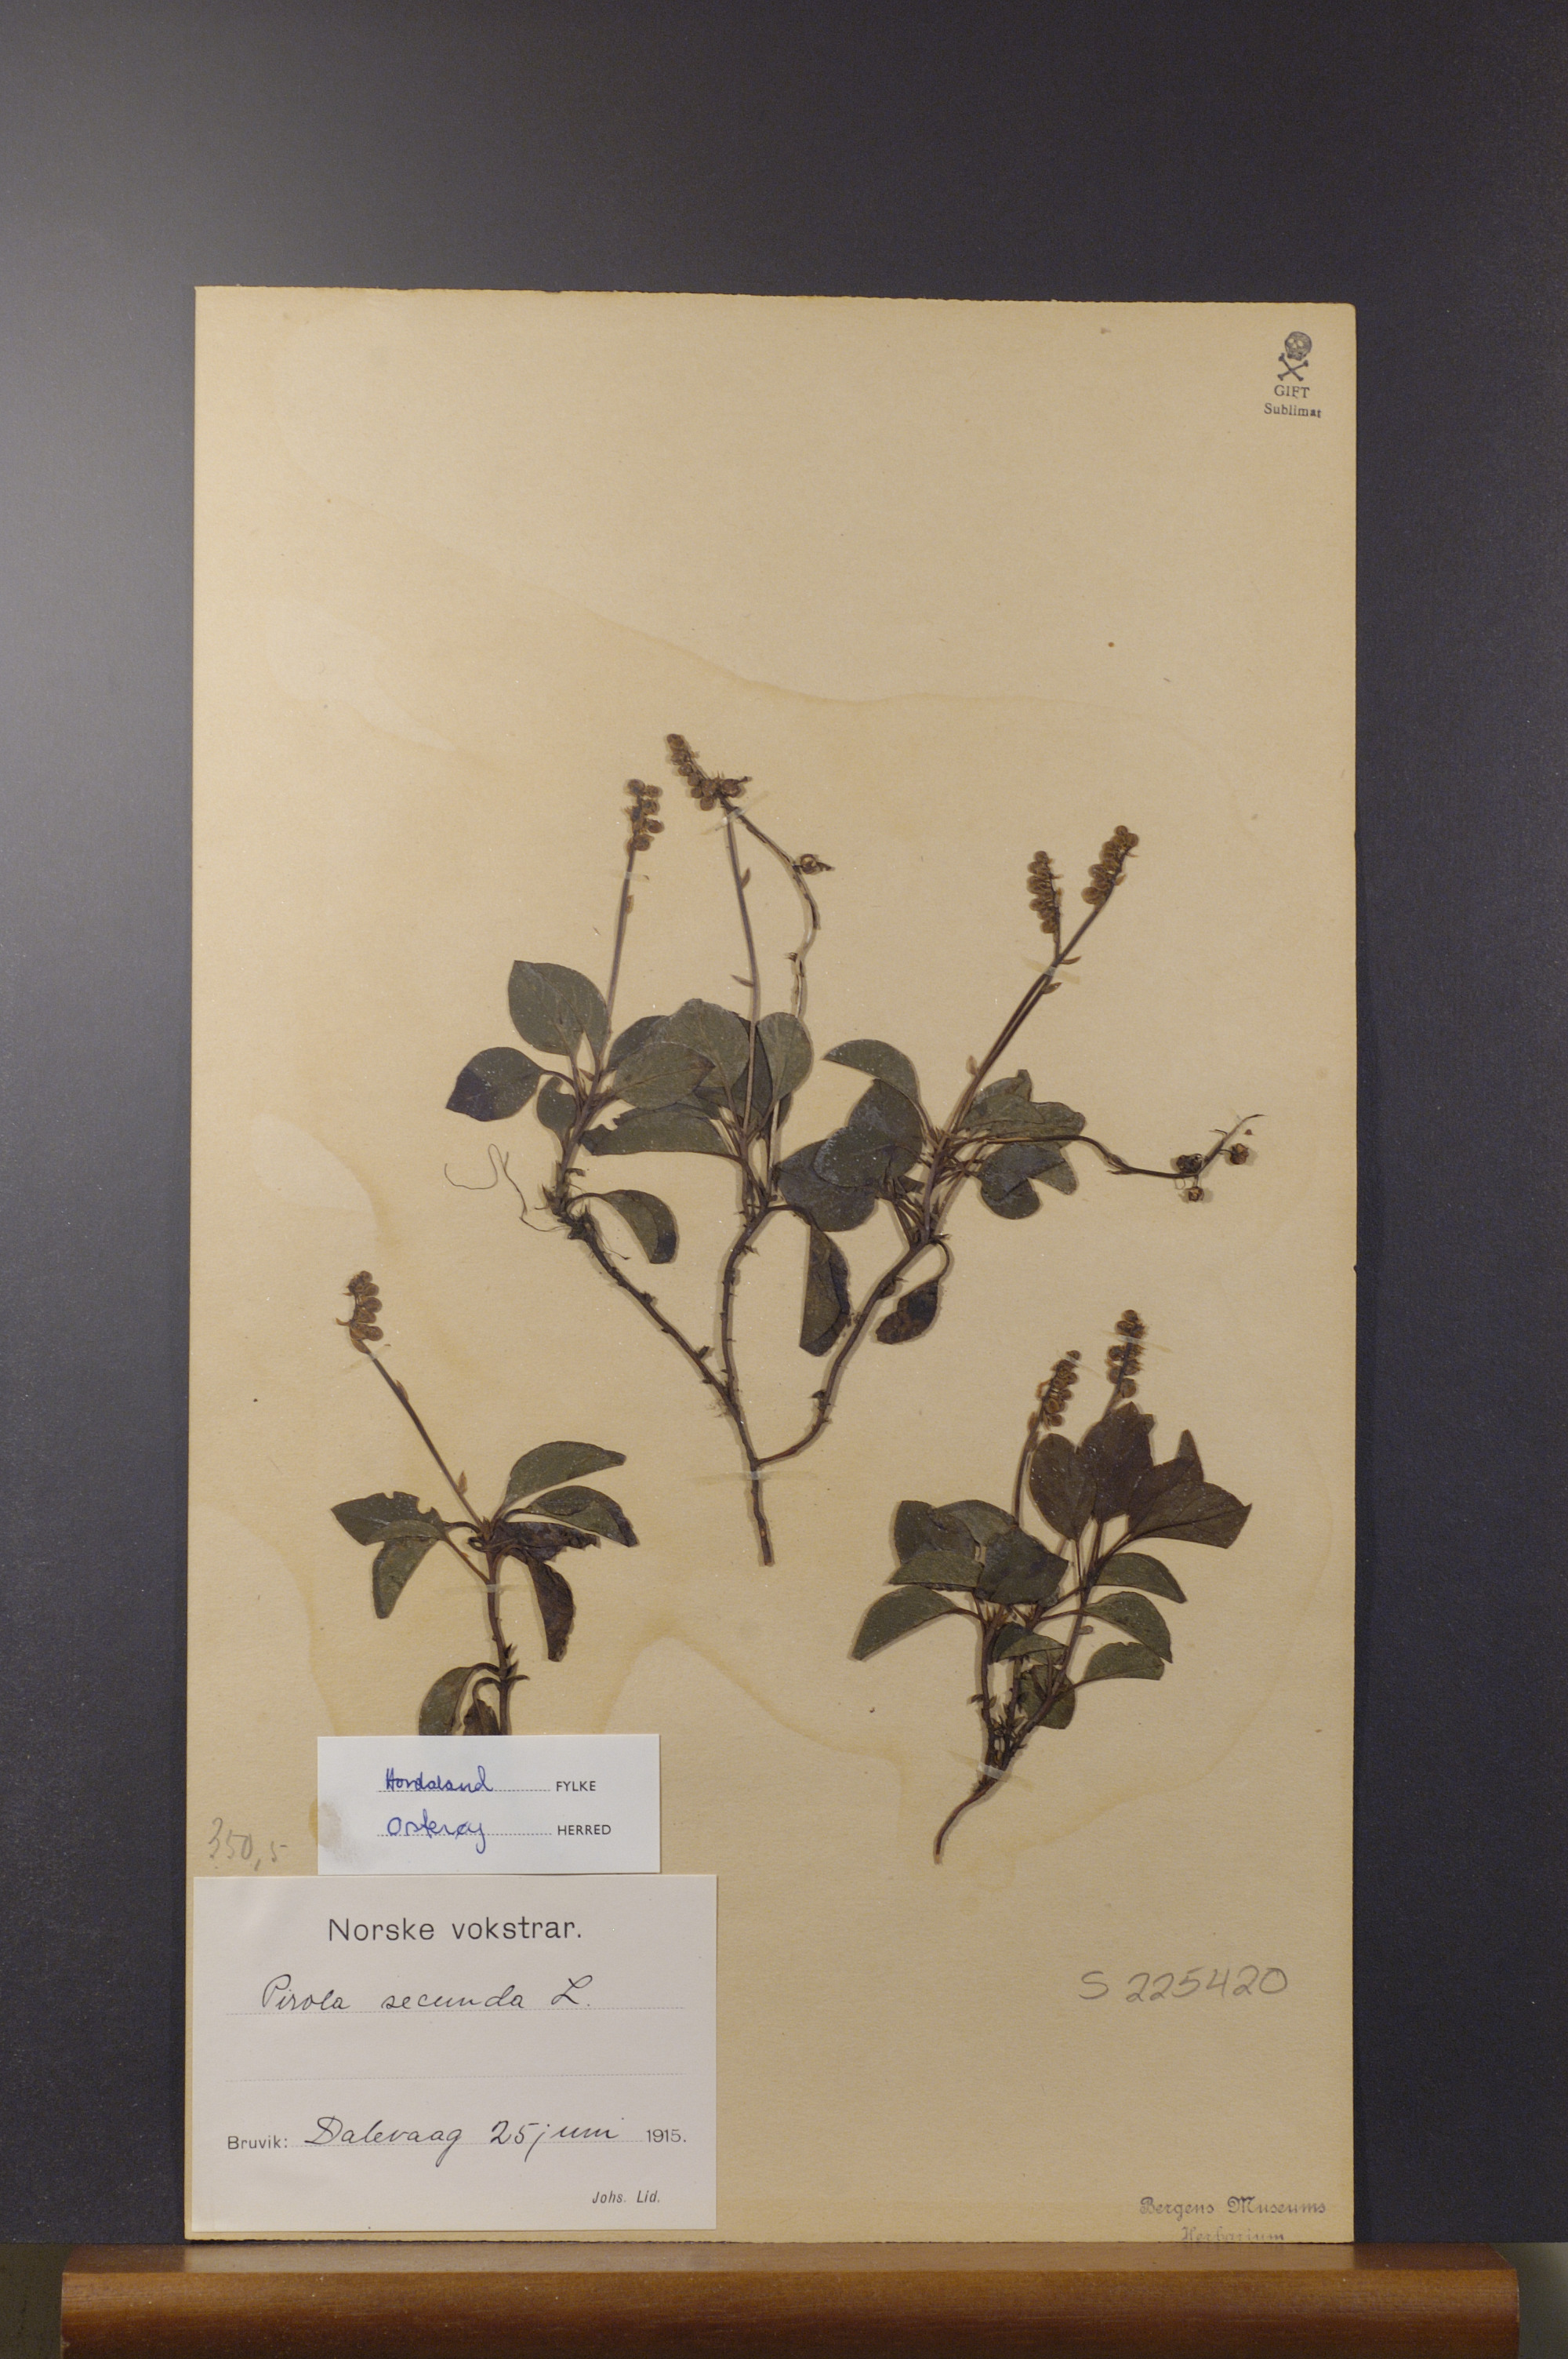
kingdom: Plantae
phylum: Tracheophyta
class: Magnoliopsida
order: Ericales
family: Ericaceae
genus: Orthilia
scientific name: Orthilia secunda
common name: One-sided orthilia
